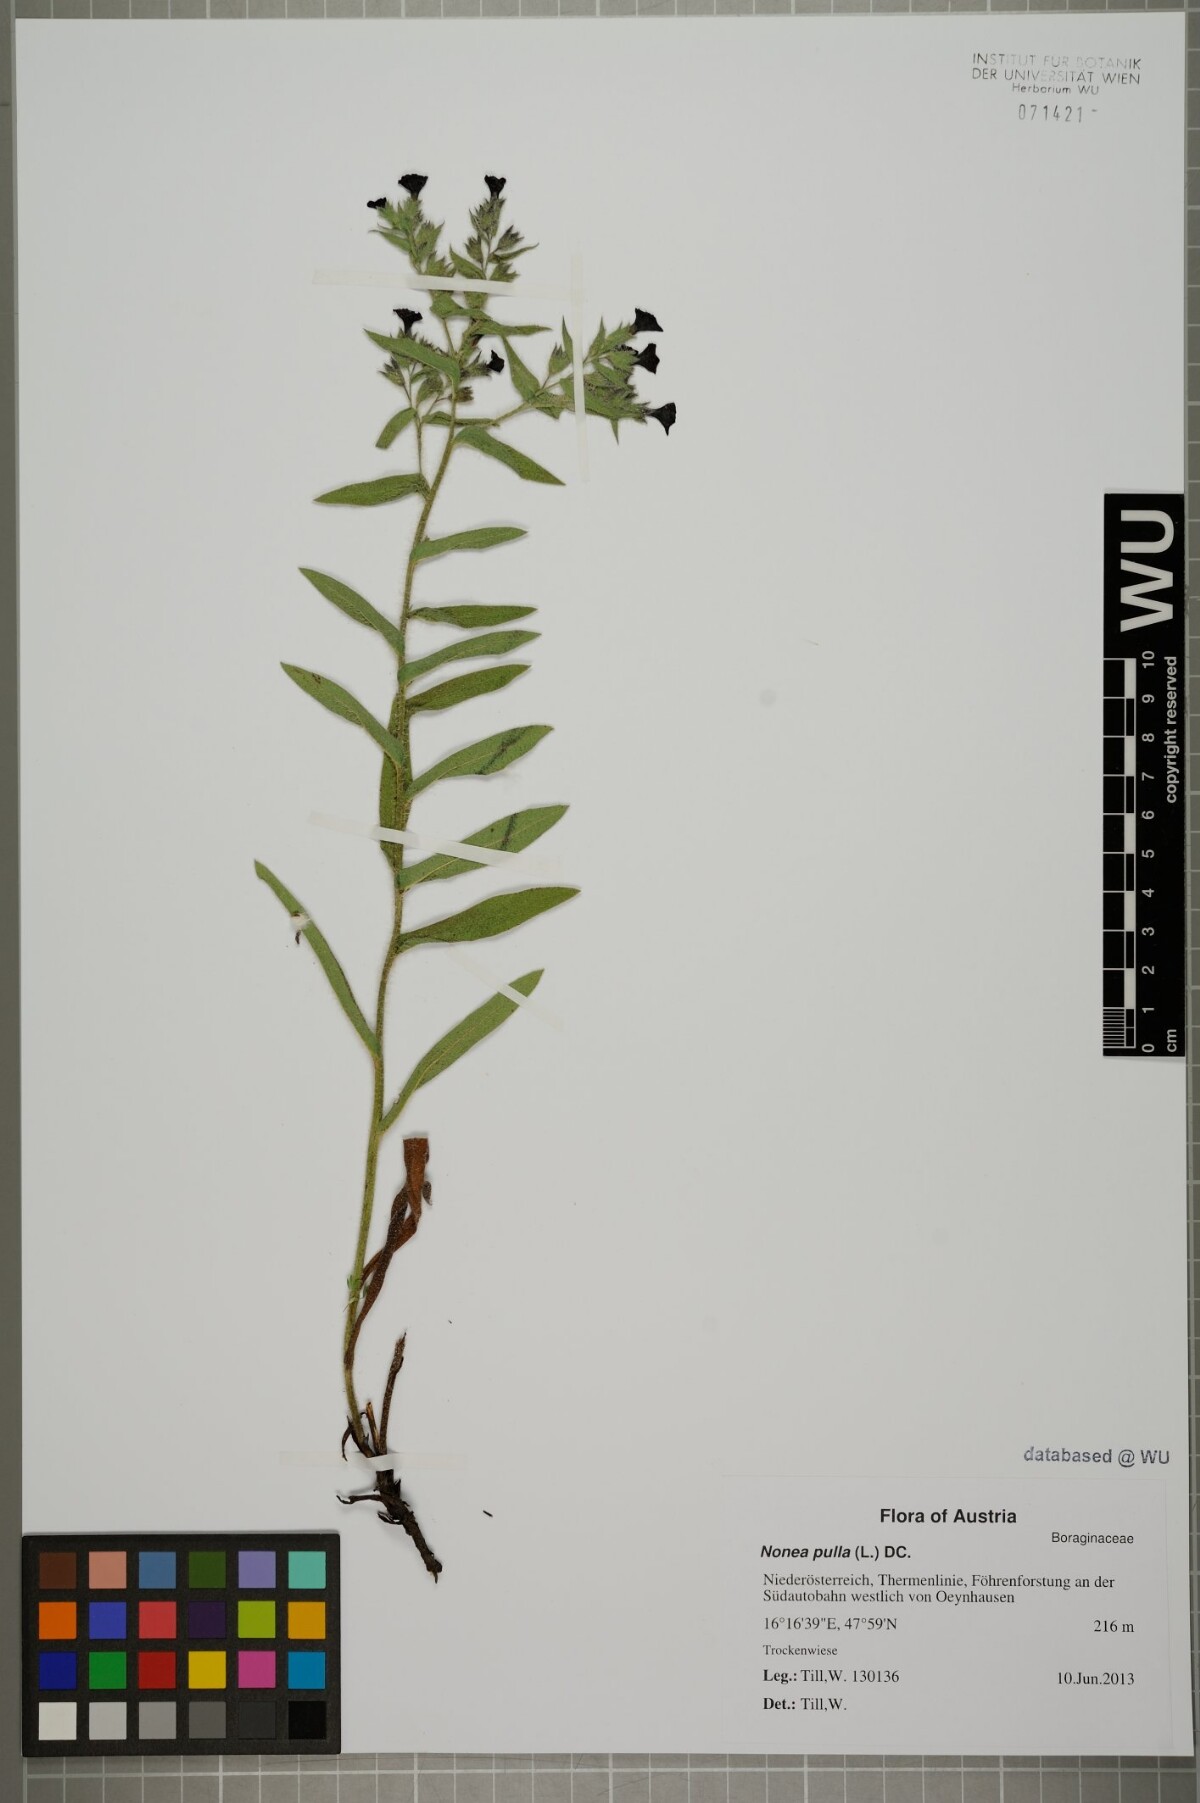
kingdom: Plantae
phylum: Tracheophyta
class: Magnoliopsida
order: Boraginales
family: Boraginaceae
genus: Nonea
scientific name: Nonea pulla
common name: Brown nonea
